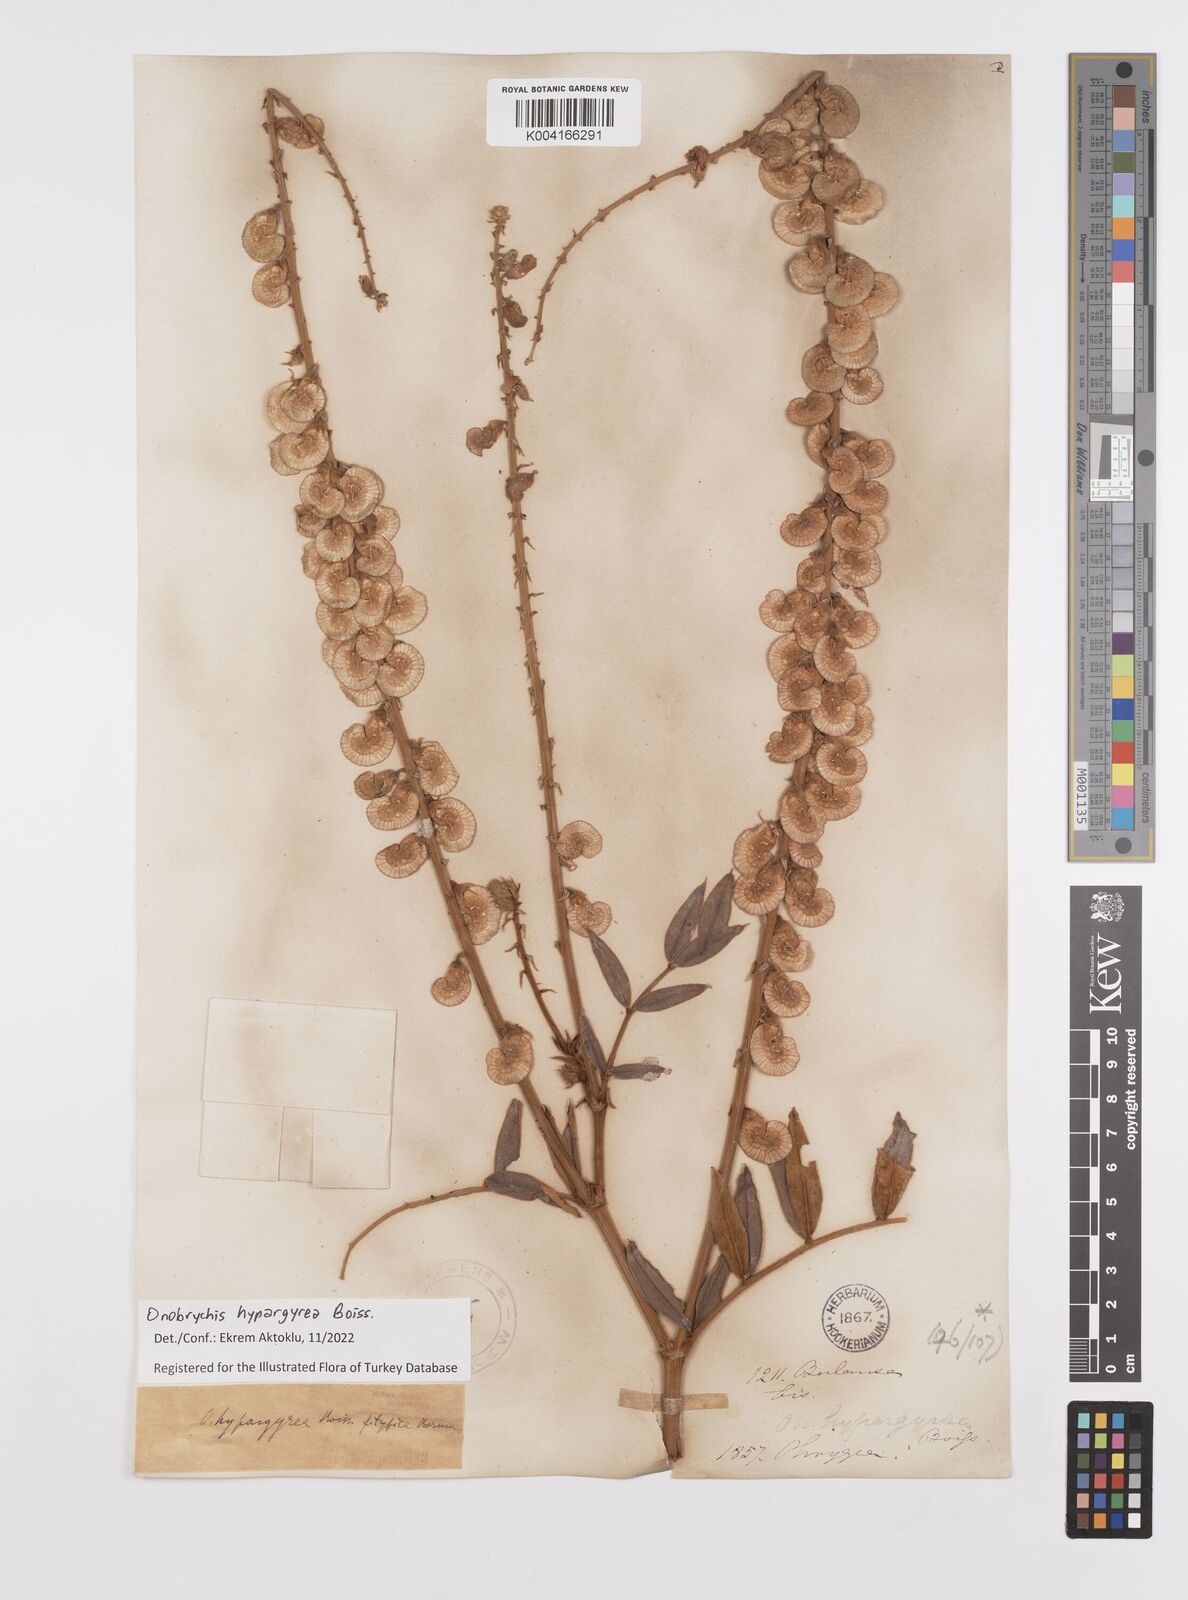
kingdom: Plantae
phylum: Tracheophyta
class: Magnoliopsida
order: Fabales
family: Fabaceae
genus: Onobrychis
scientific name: Onobrychis hypargyrea
